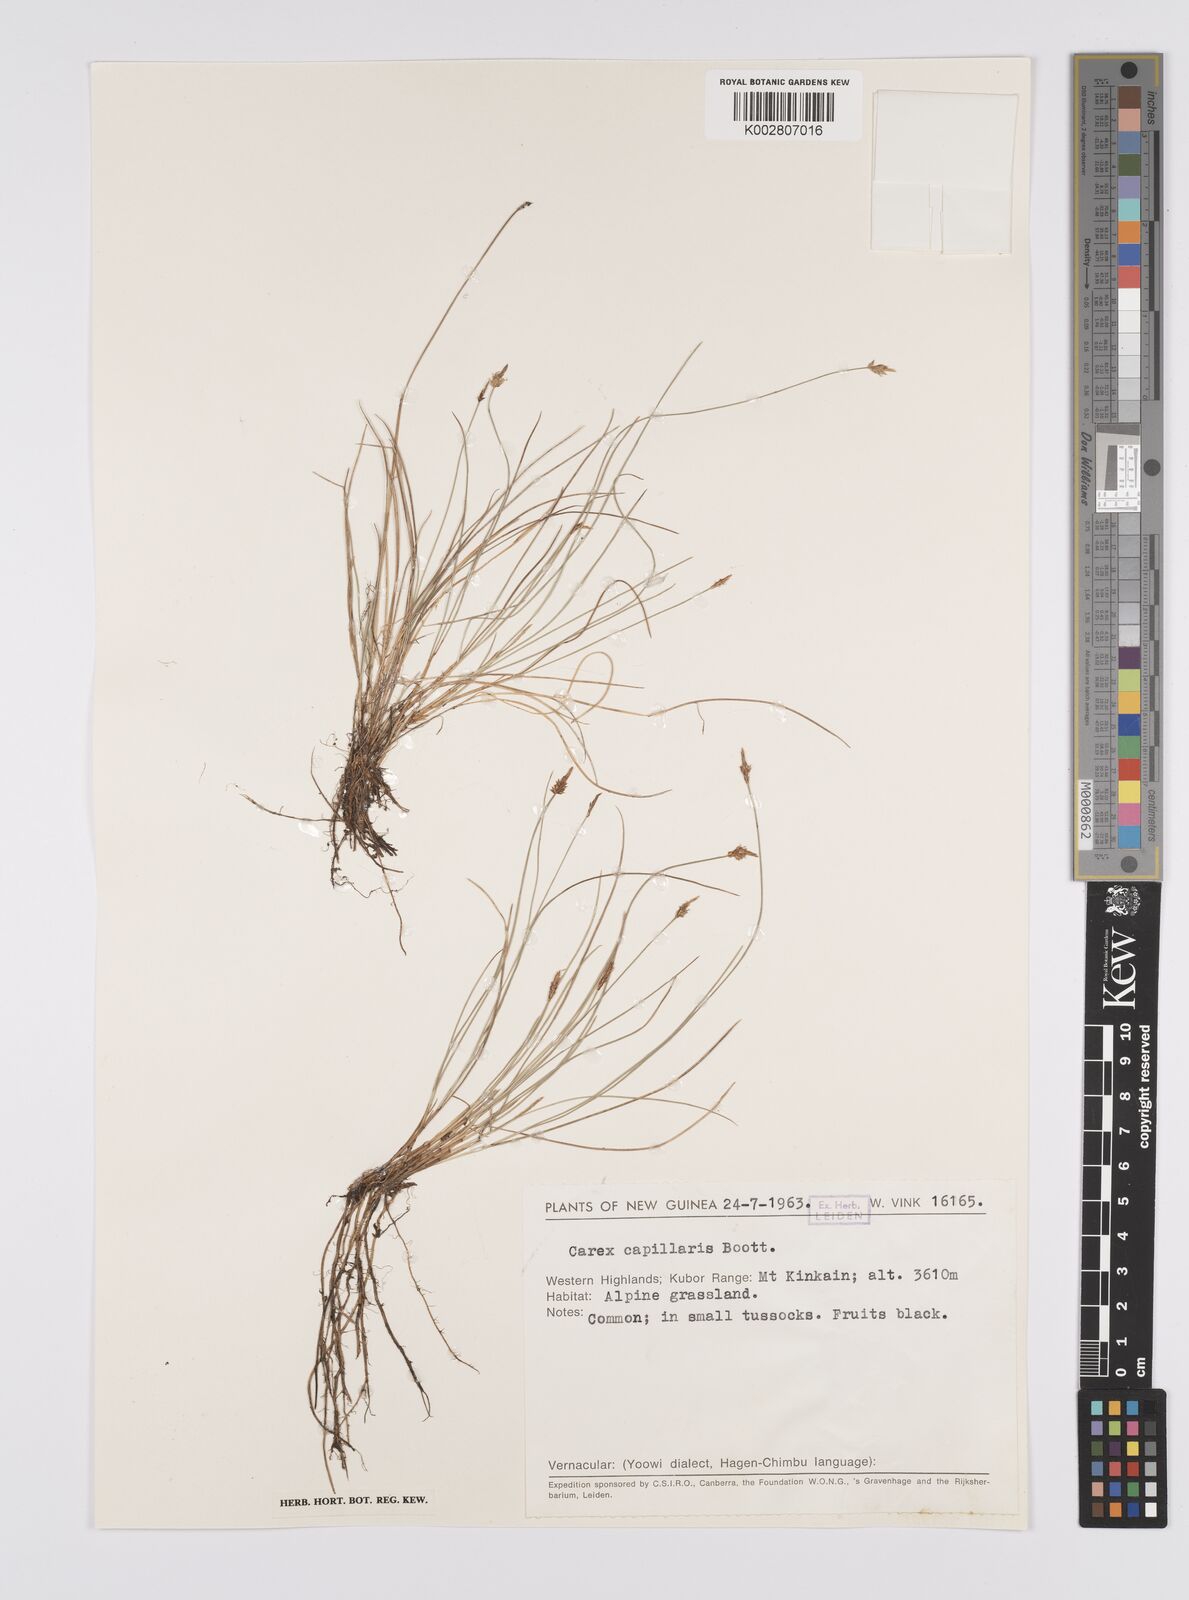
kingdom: Plantae
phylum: Tracheophyta
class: Liliopsida
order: Poales
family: Cyperaceae
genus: Carex
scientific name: Carex capillacea
